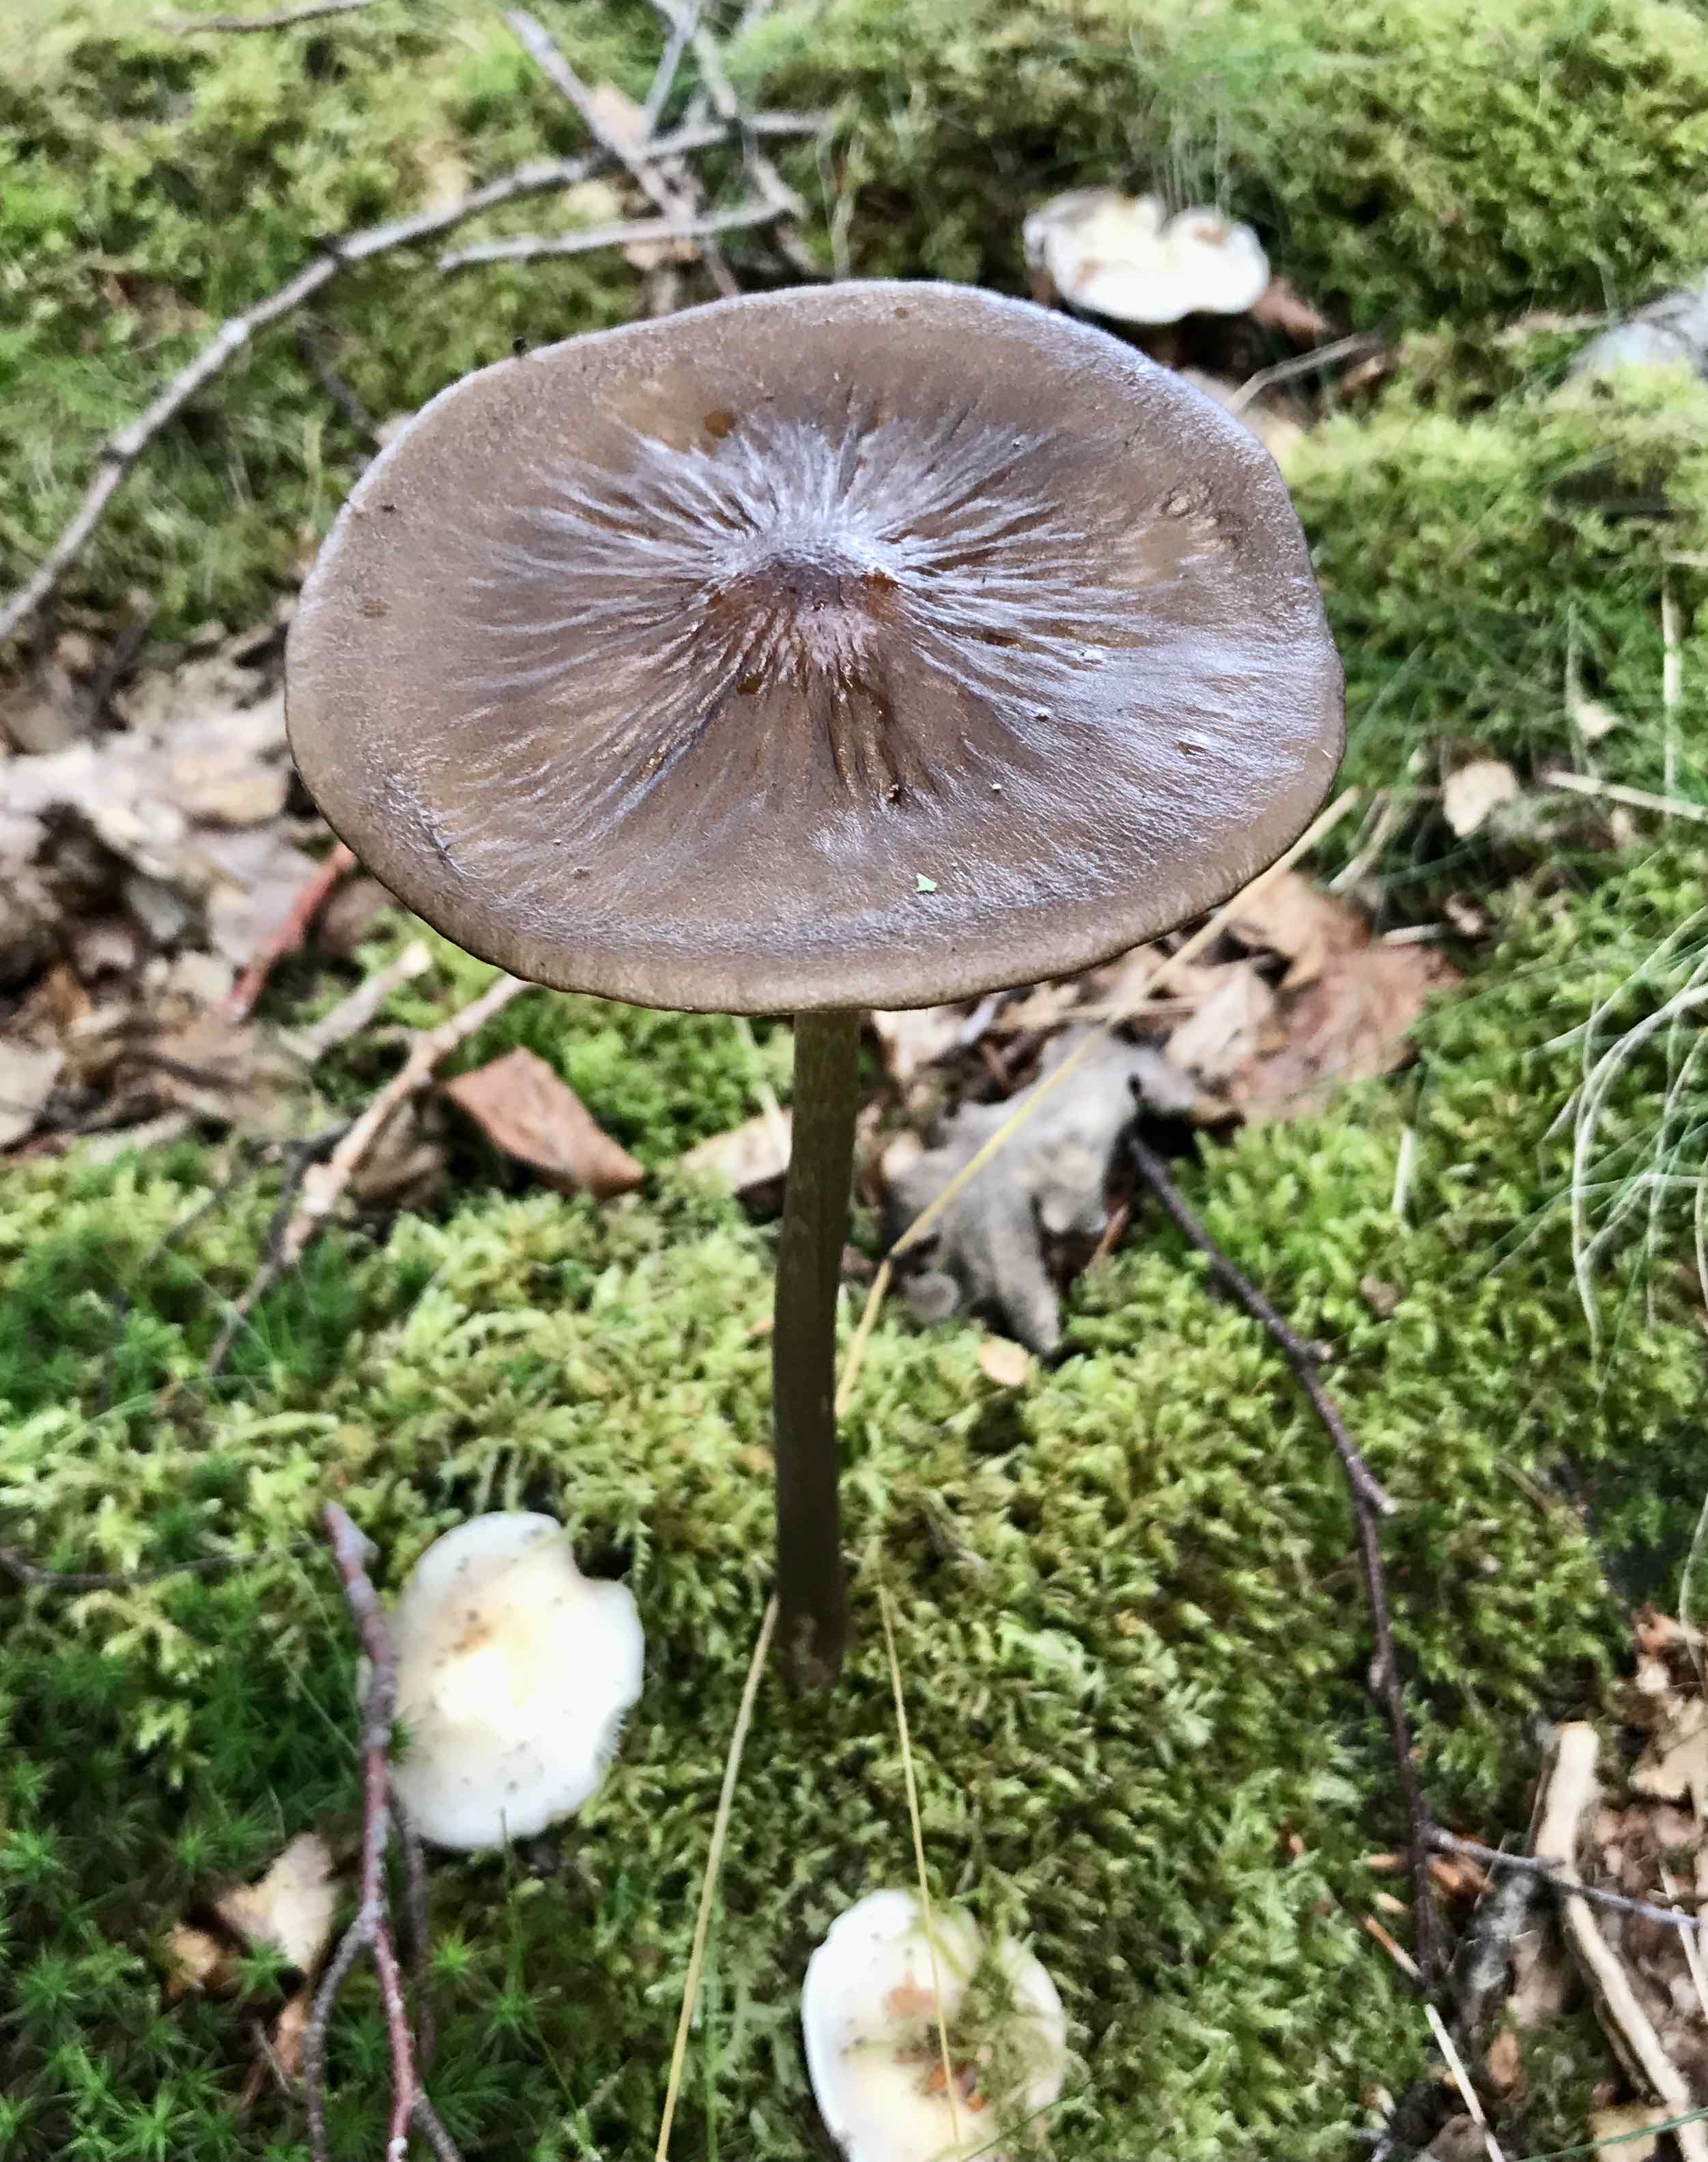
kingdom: Fungi
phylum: Basidiomycota
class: Agaricomycetes
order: Agaricales
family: Physalacriaceae
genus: Hymenopellis
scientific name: Hymenopellis radicata
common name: almindelig pælerodshat
